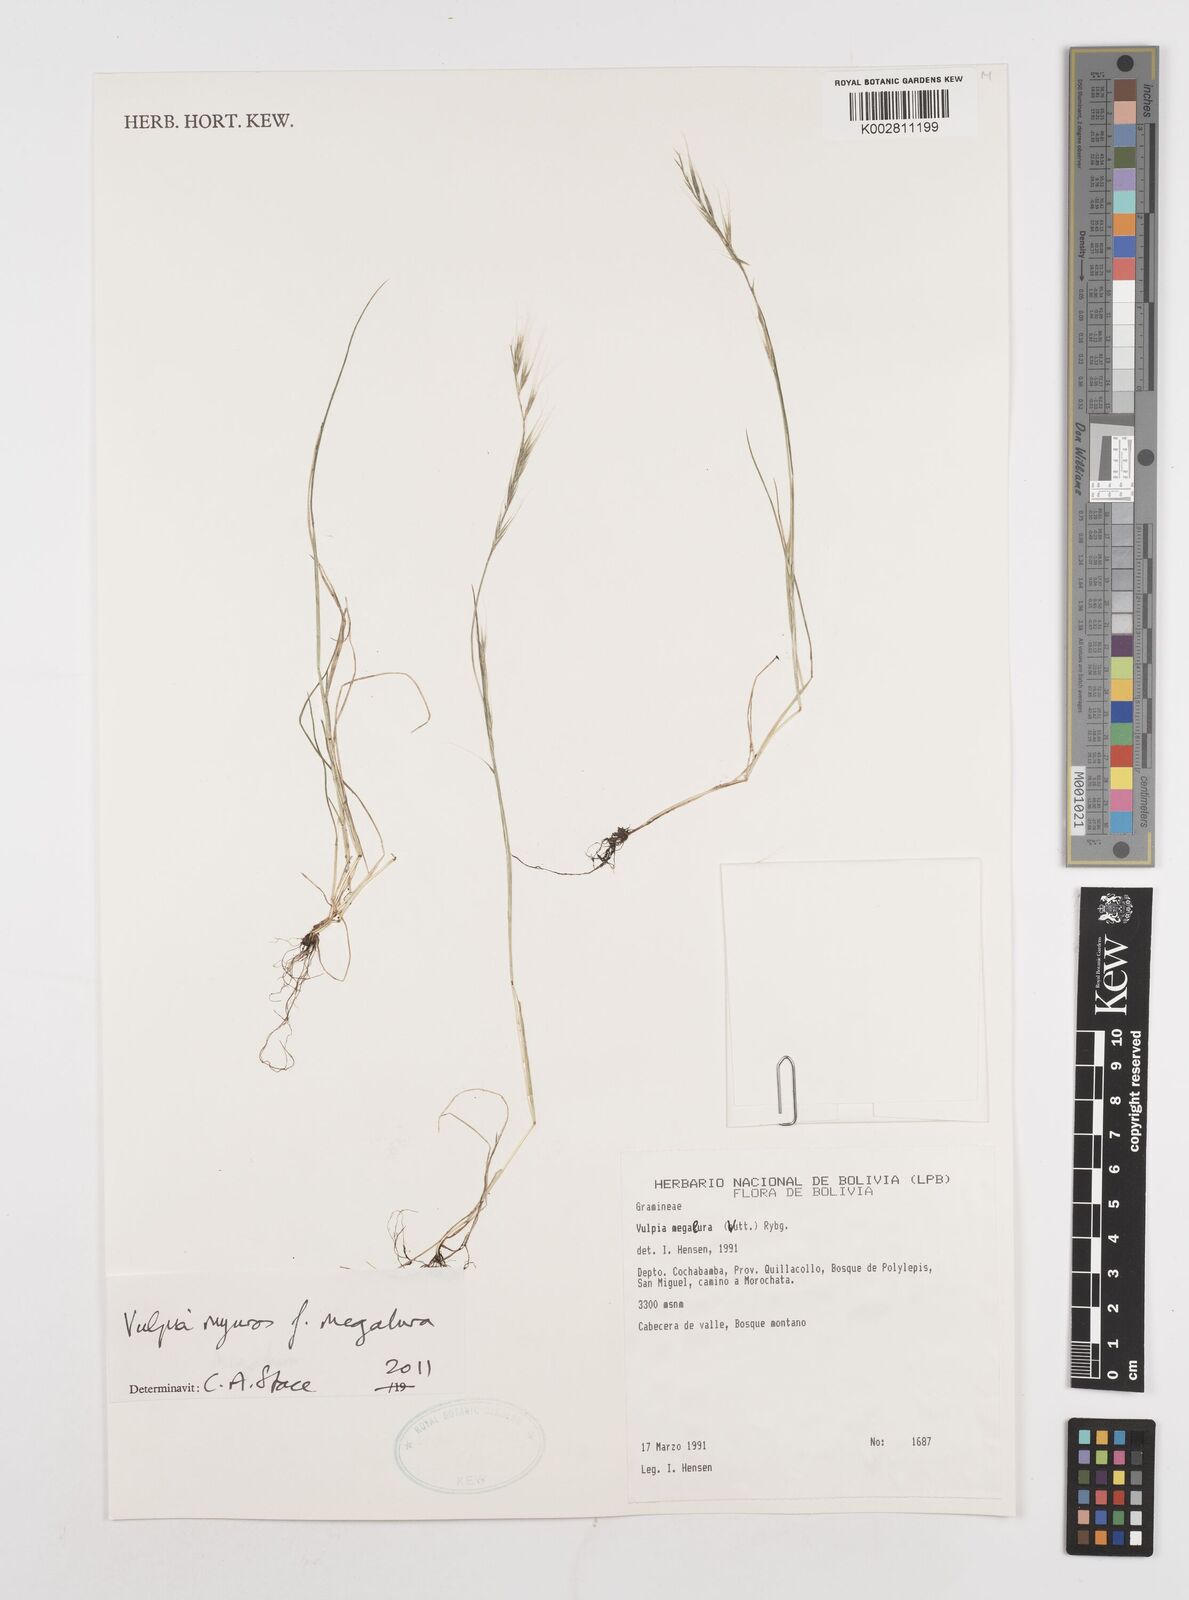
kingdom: Plantae
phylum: Tracheophyta
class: Liliopsida
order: Poales
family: Poaceae
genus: Festuca
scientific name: Festuca myuros
